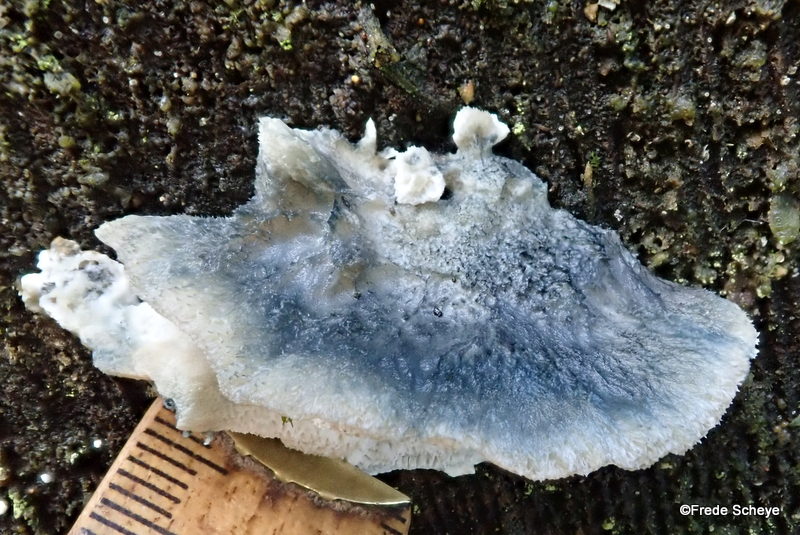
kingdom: Fungi
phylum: Basidiomycota
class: Agaricomycetes
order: Polyporales
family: Polyporaceae
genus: Cyanosporus
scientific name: Cyanosporus caesius
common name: blålig kødporesvamp
